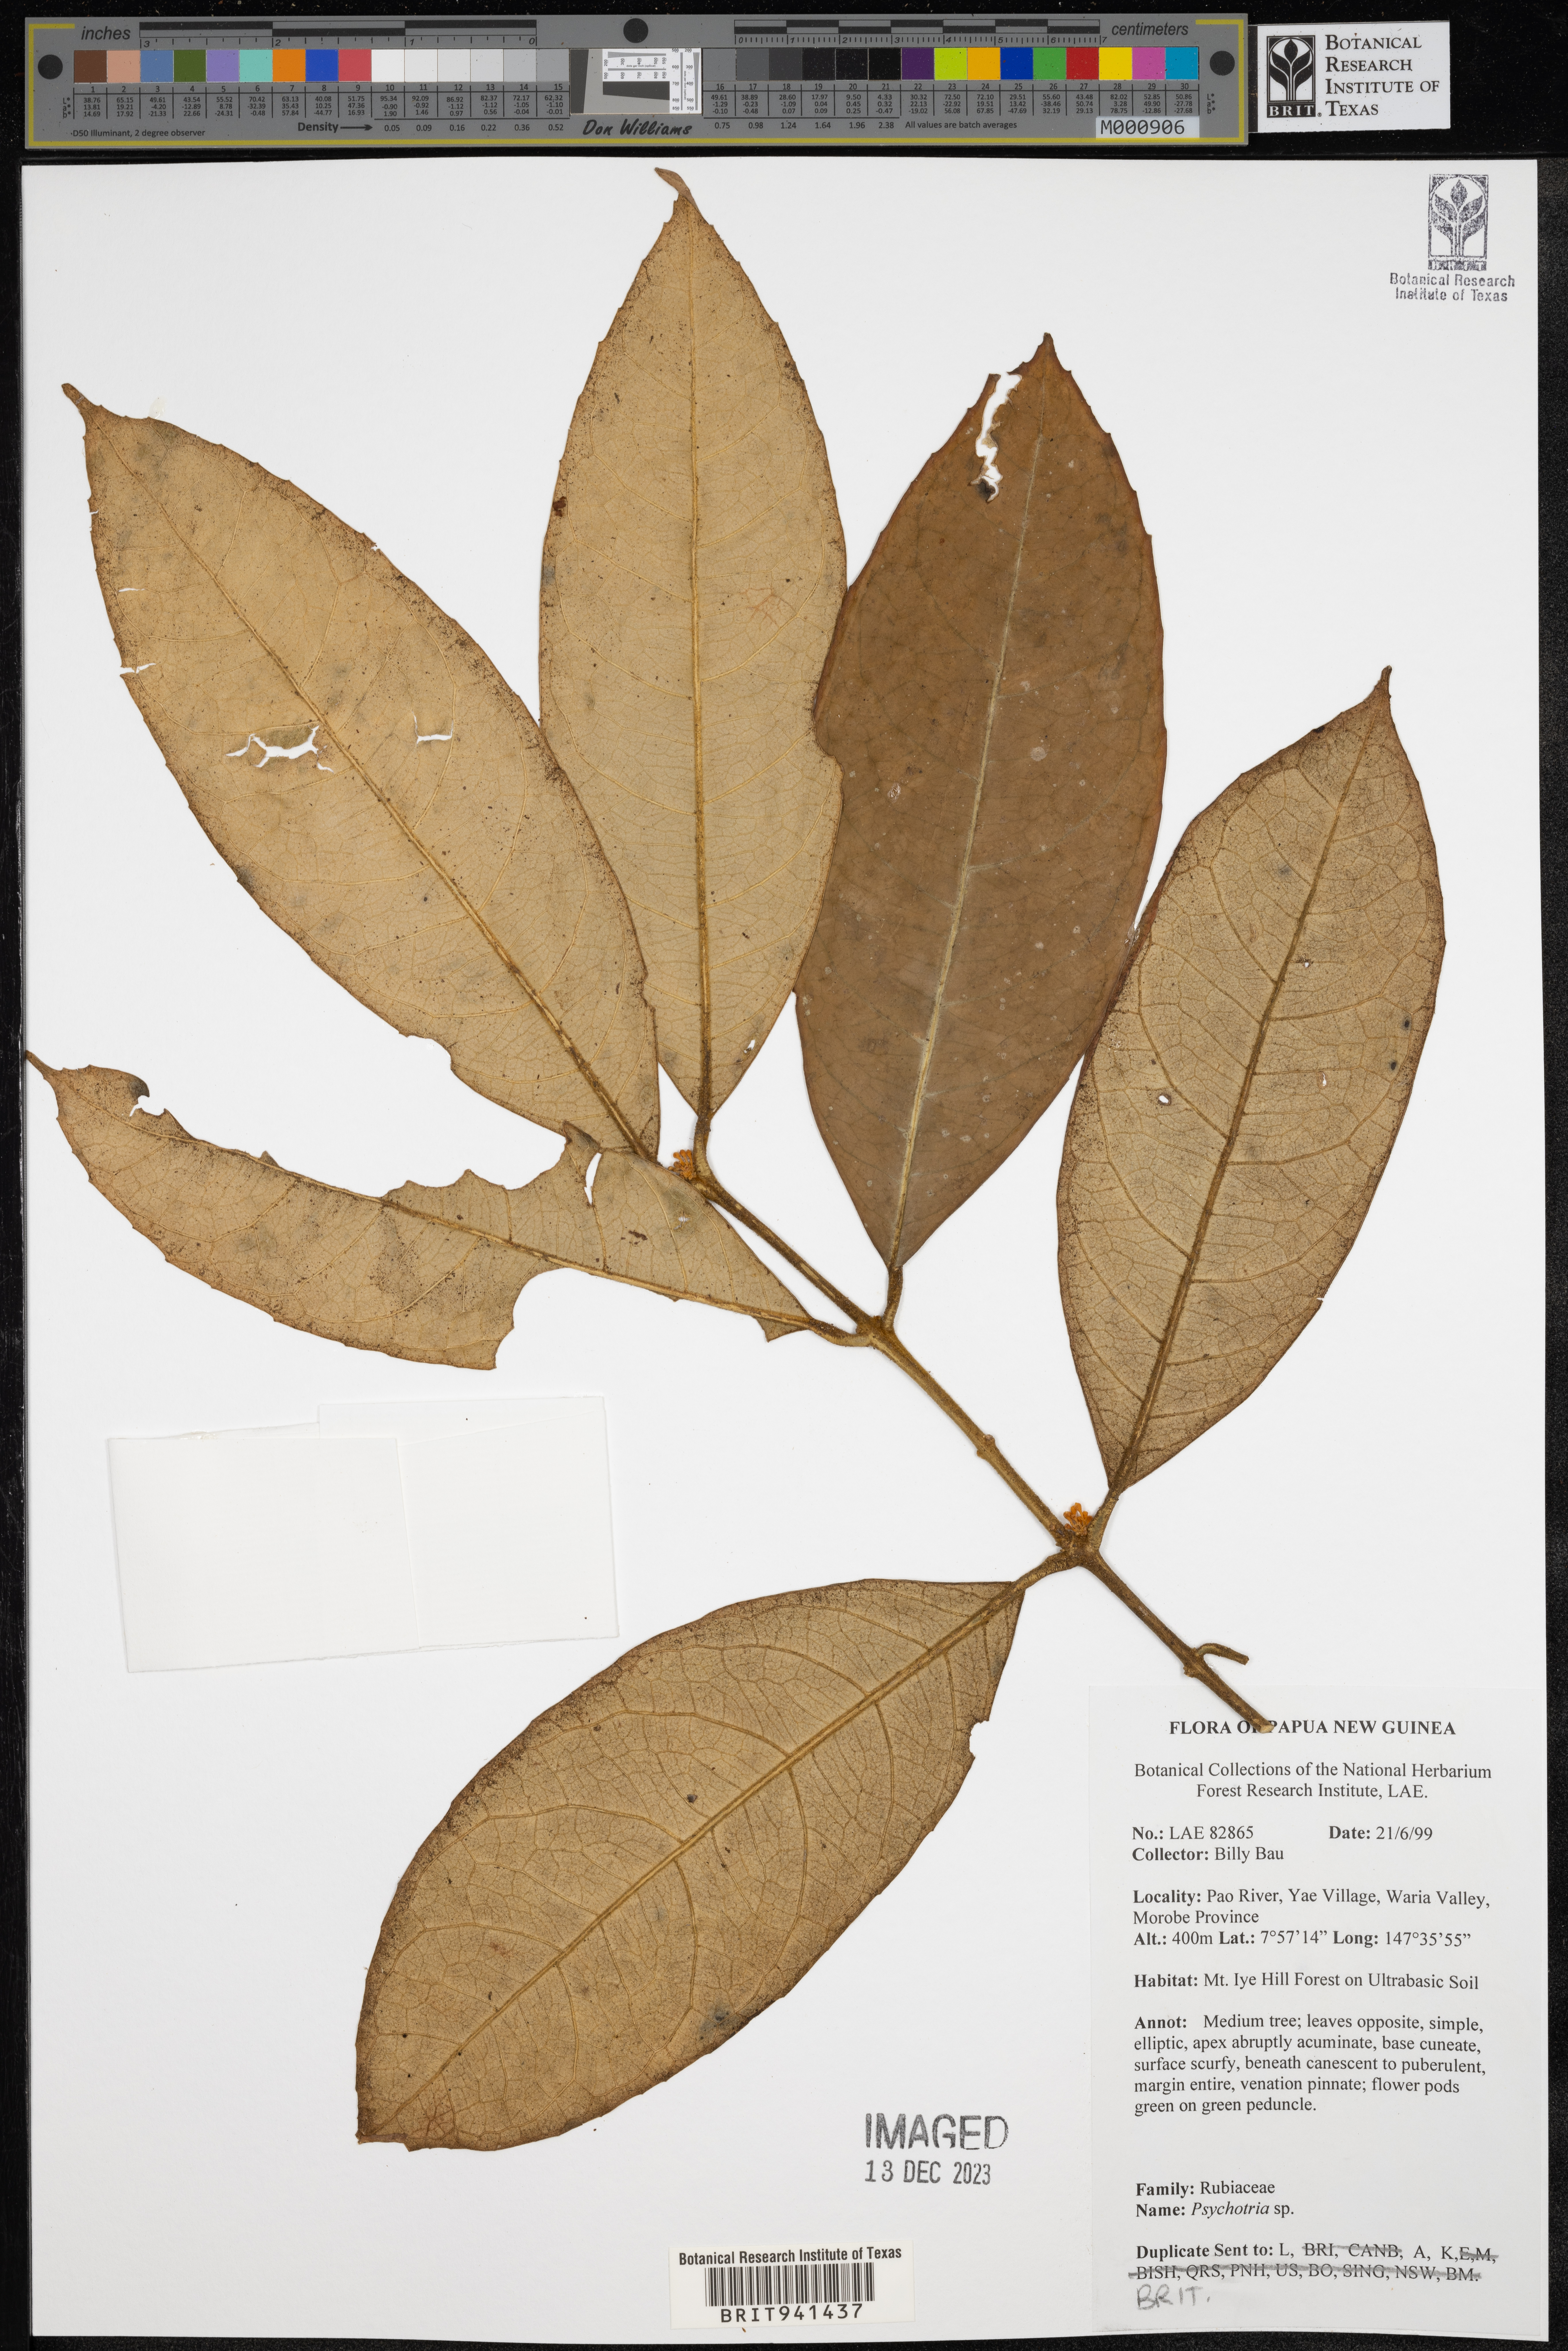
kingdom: Plantae
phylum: Tracheophyta
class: Magnoliopsida
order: Gentianales
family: Rubiaceae
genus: Psychotria
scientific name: Psychotria
